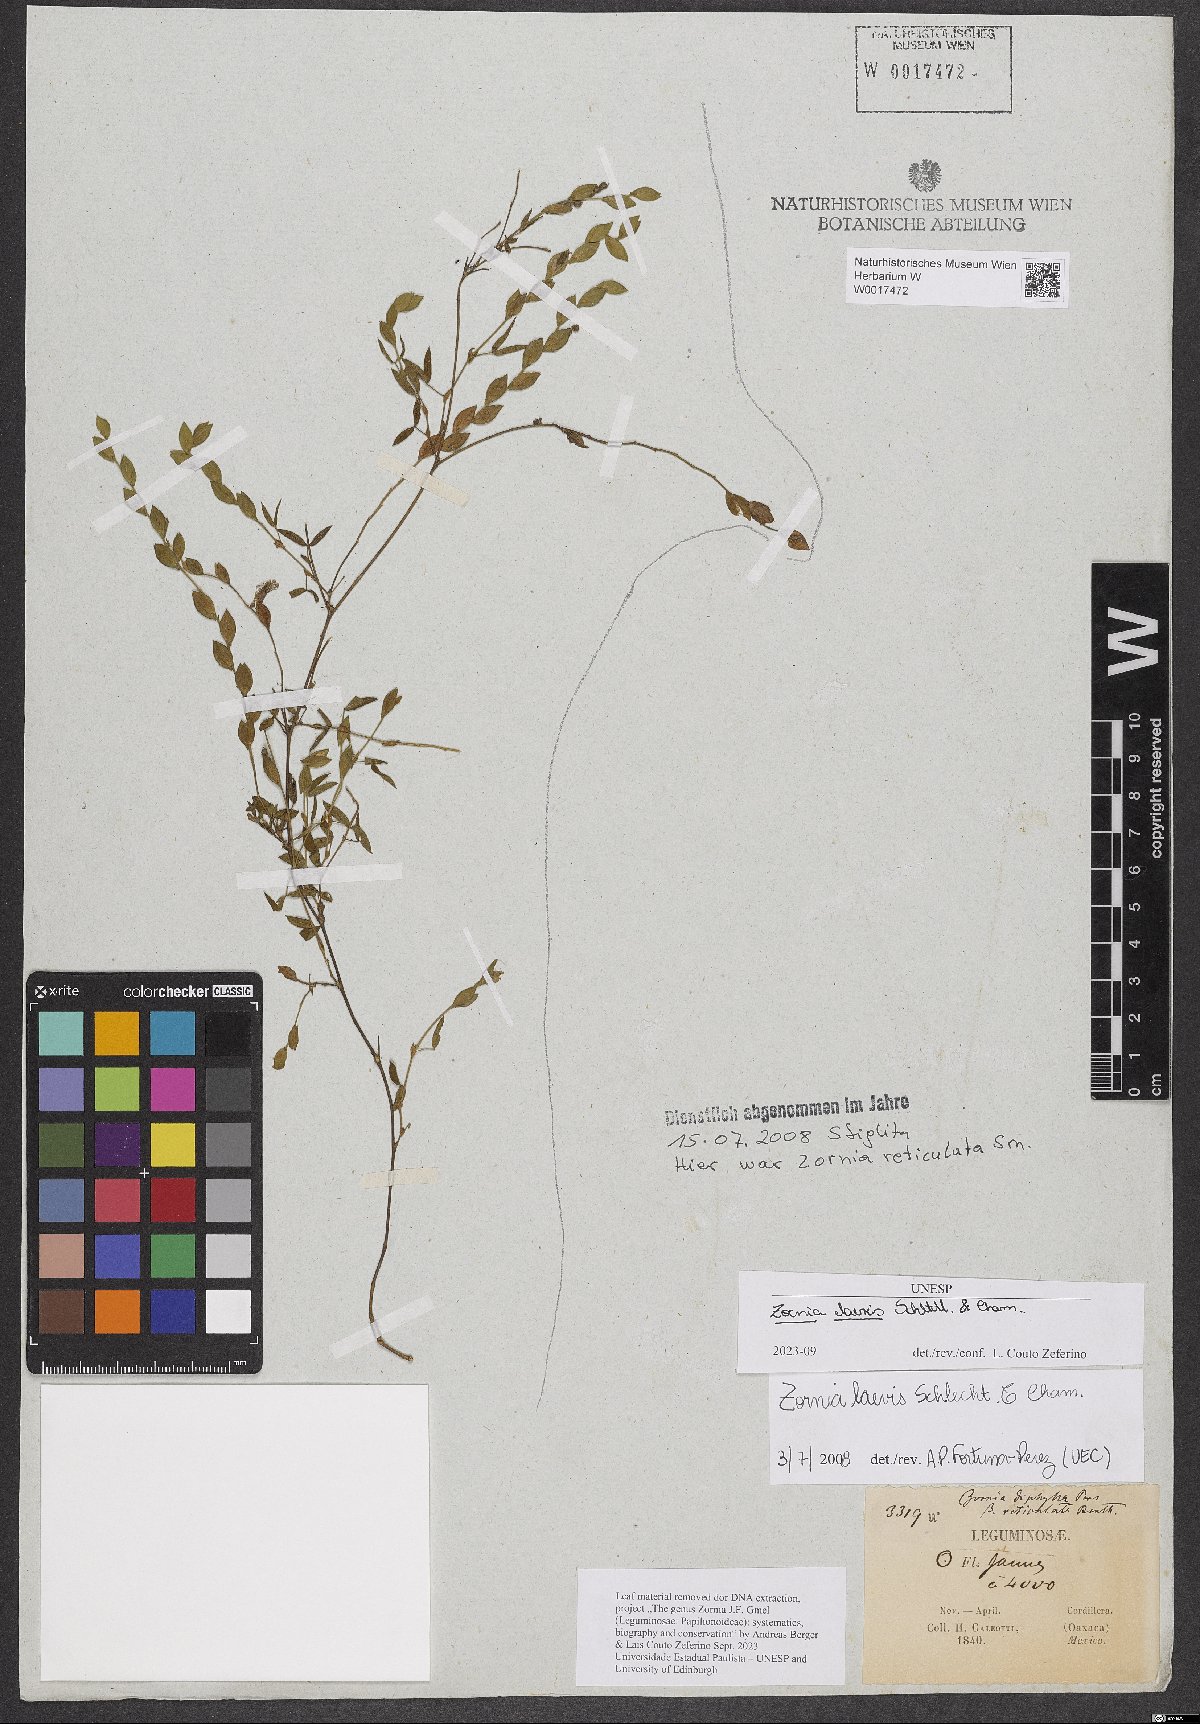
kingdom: Plantae
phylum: Tracheophyta
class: Magnoliopsida
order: Fabales
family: Fabaceae
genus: Zornia
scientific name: Zornia laevis
